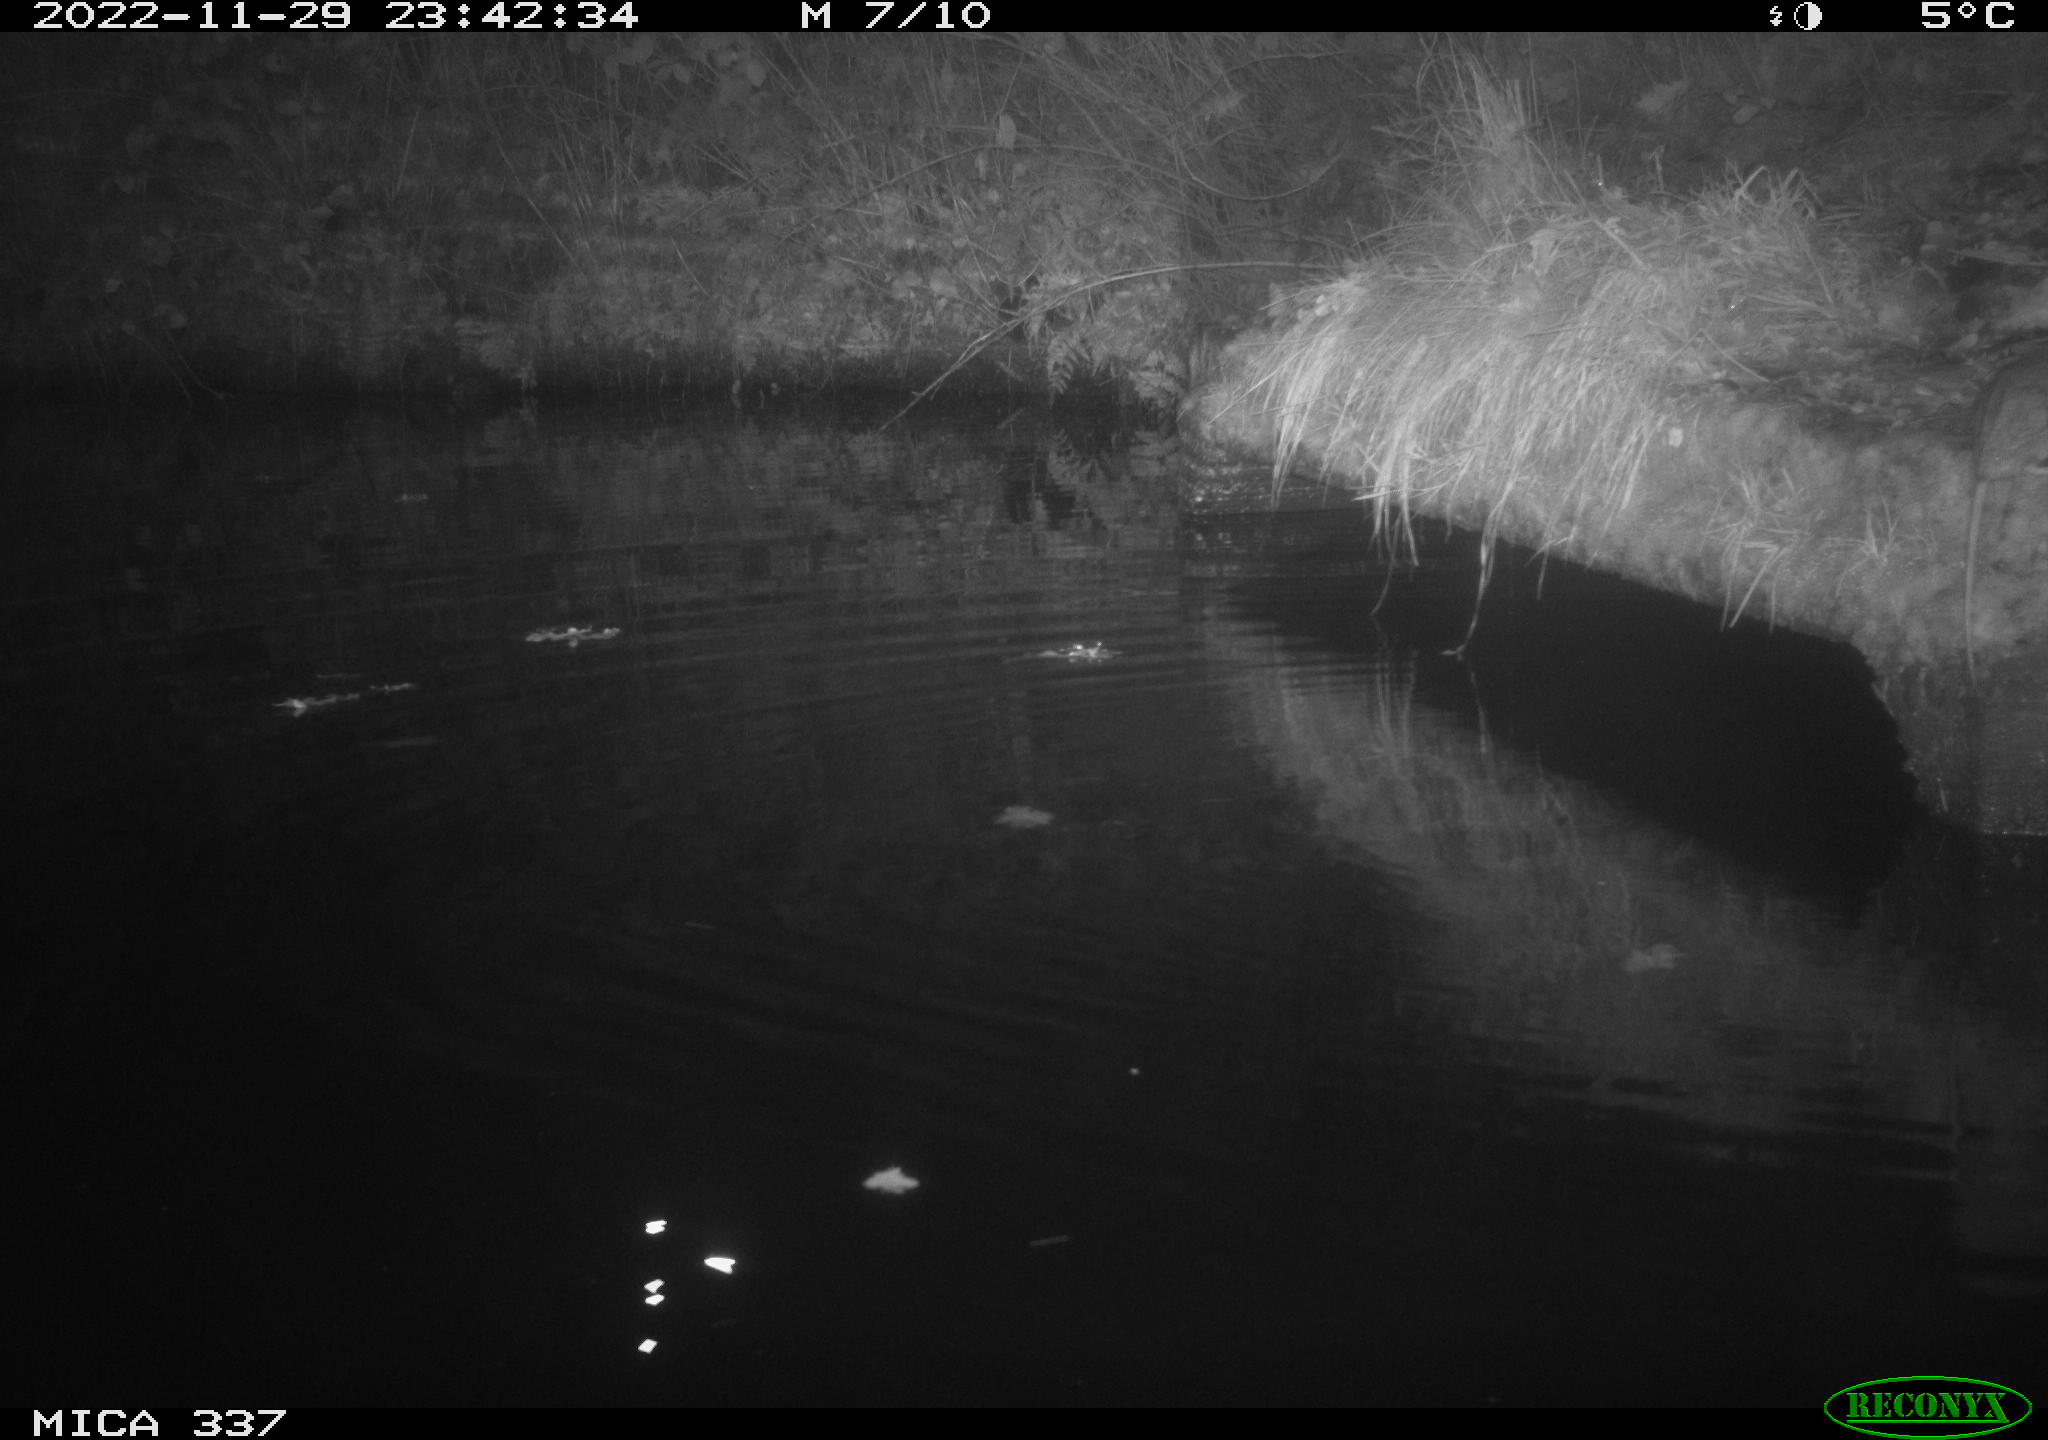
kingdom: Animalia
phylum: Chordata
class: Mammalia
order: Rodentia
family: Muridae
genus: Rattus
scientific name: Rattus norvegicus
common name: Brown rat
